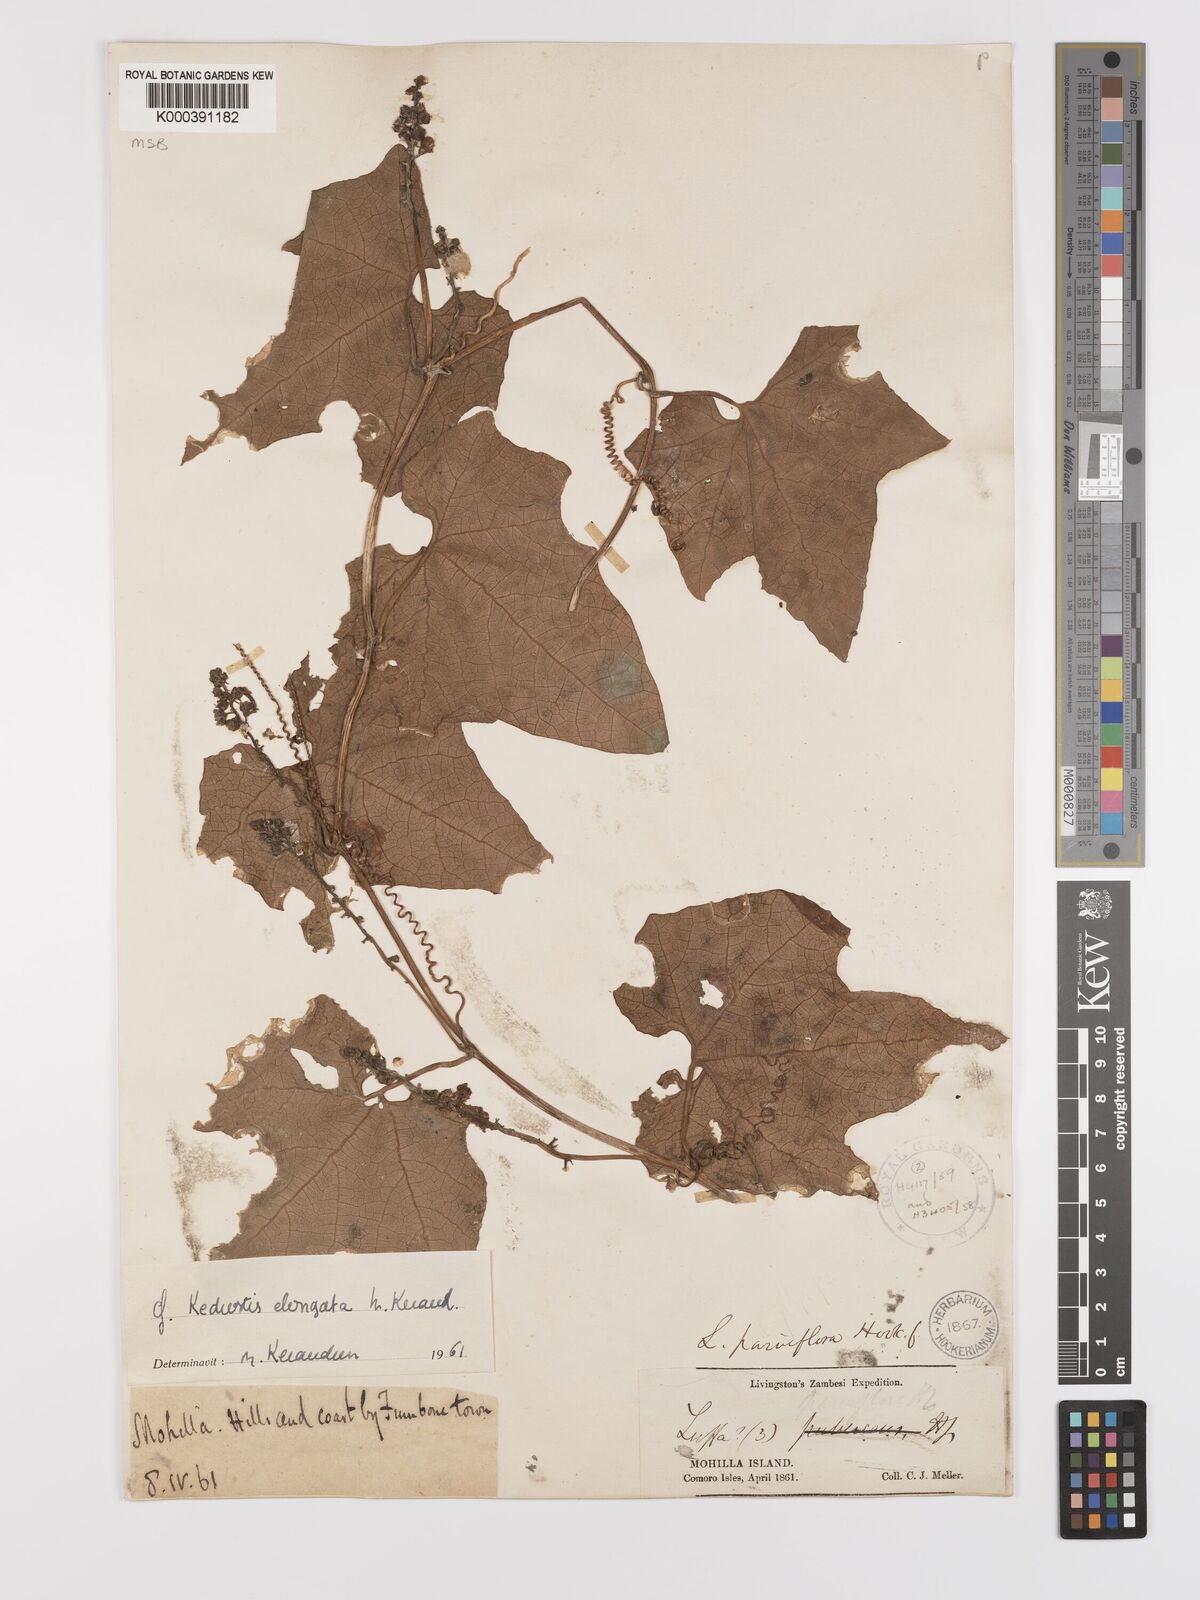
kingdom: Plantae
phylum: Tracheophyta
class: Magnoliopsida
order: Cucurbitales
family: Cucurbitaceae
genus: Kedrostis
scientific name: Kedrostis elongata
